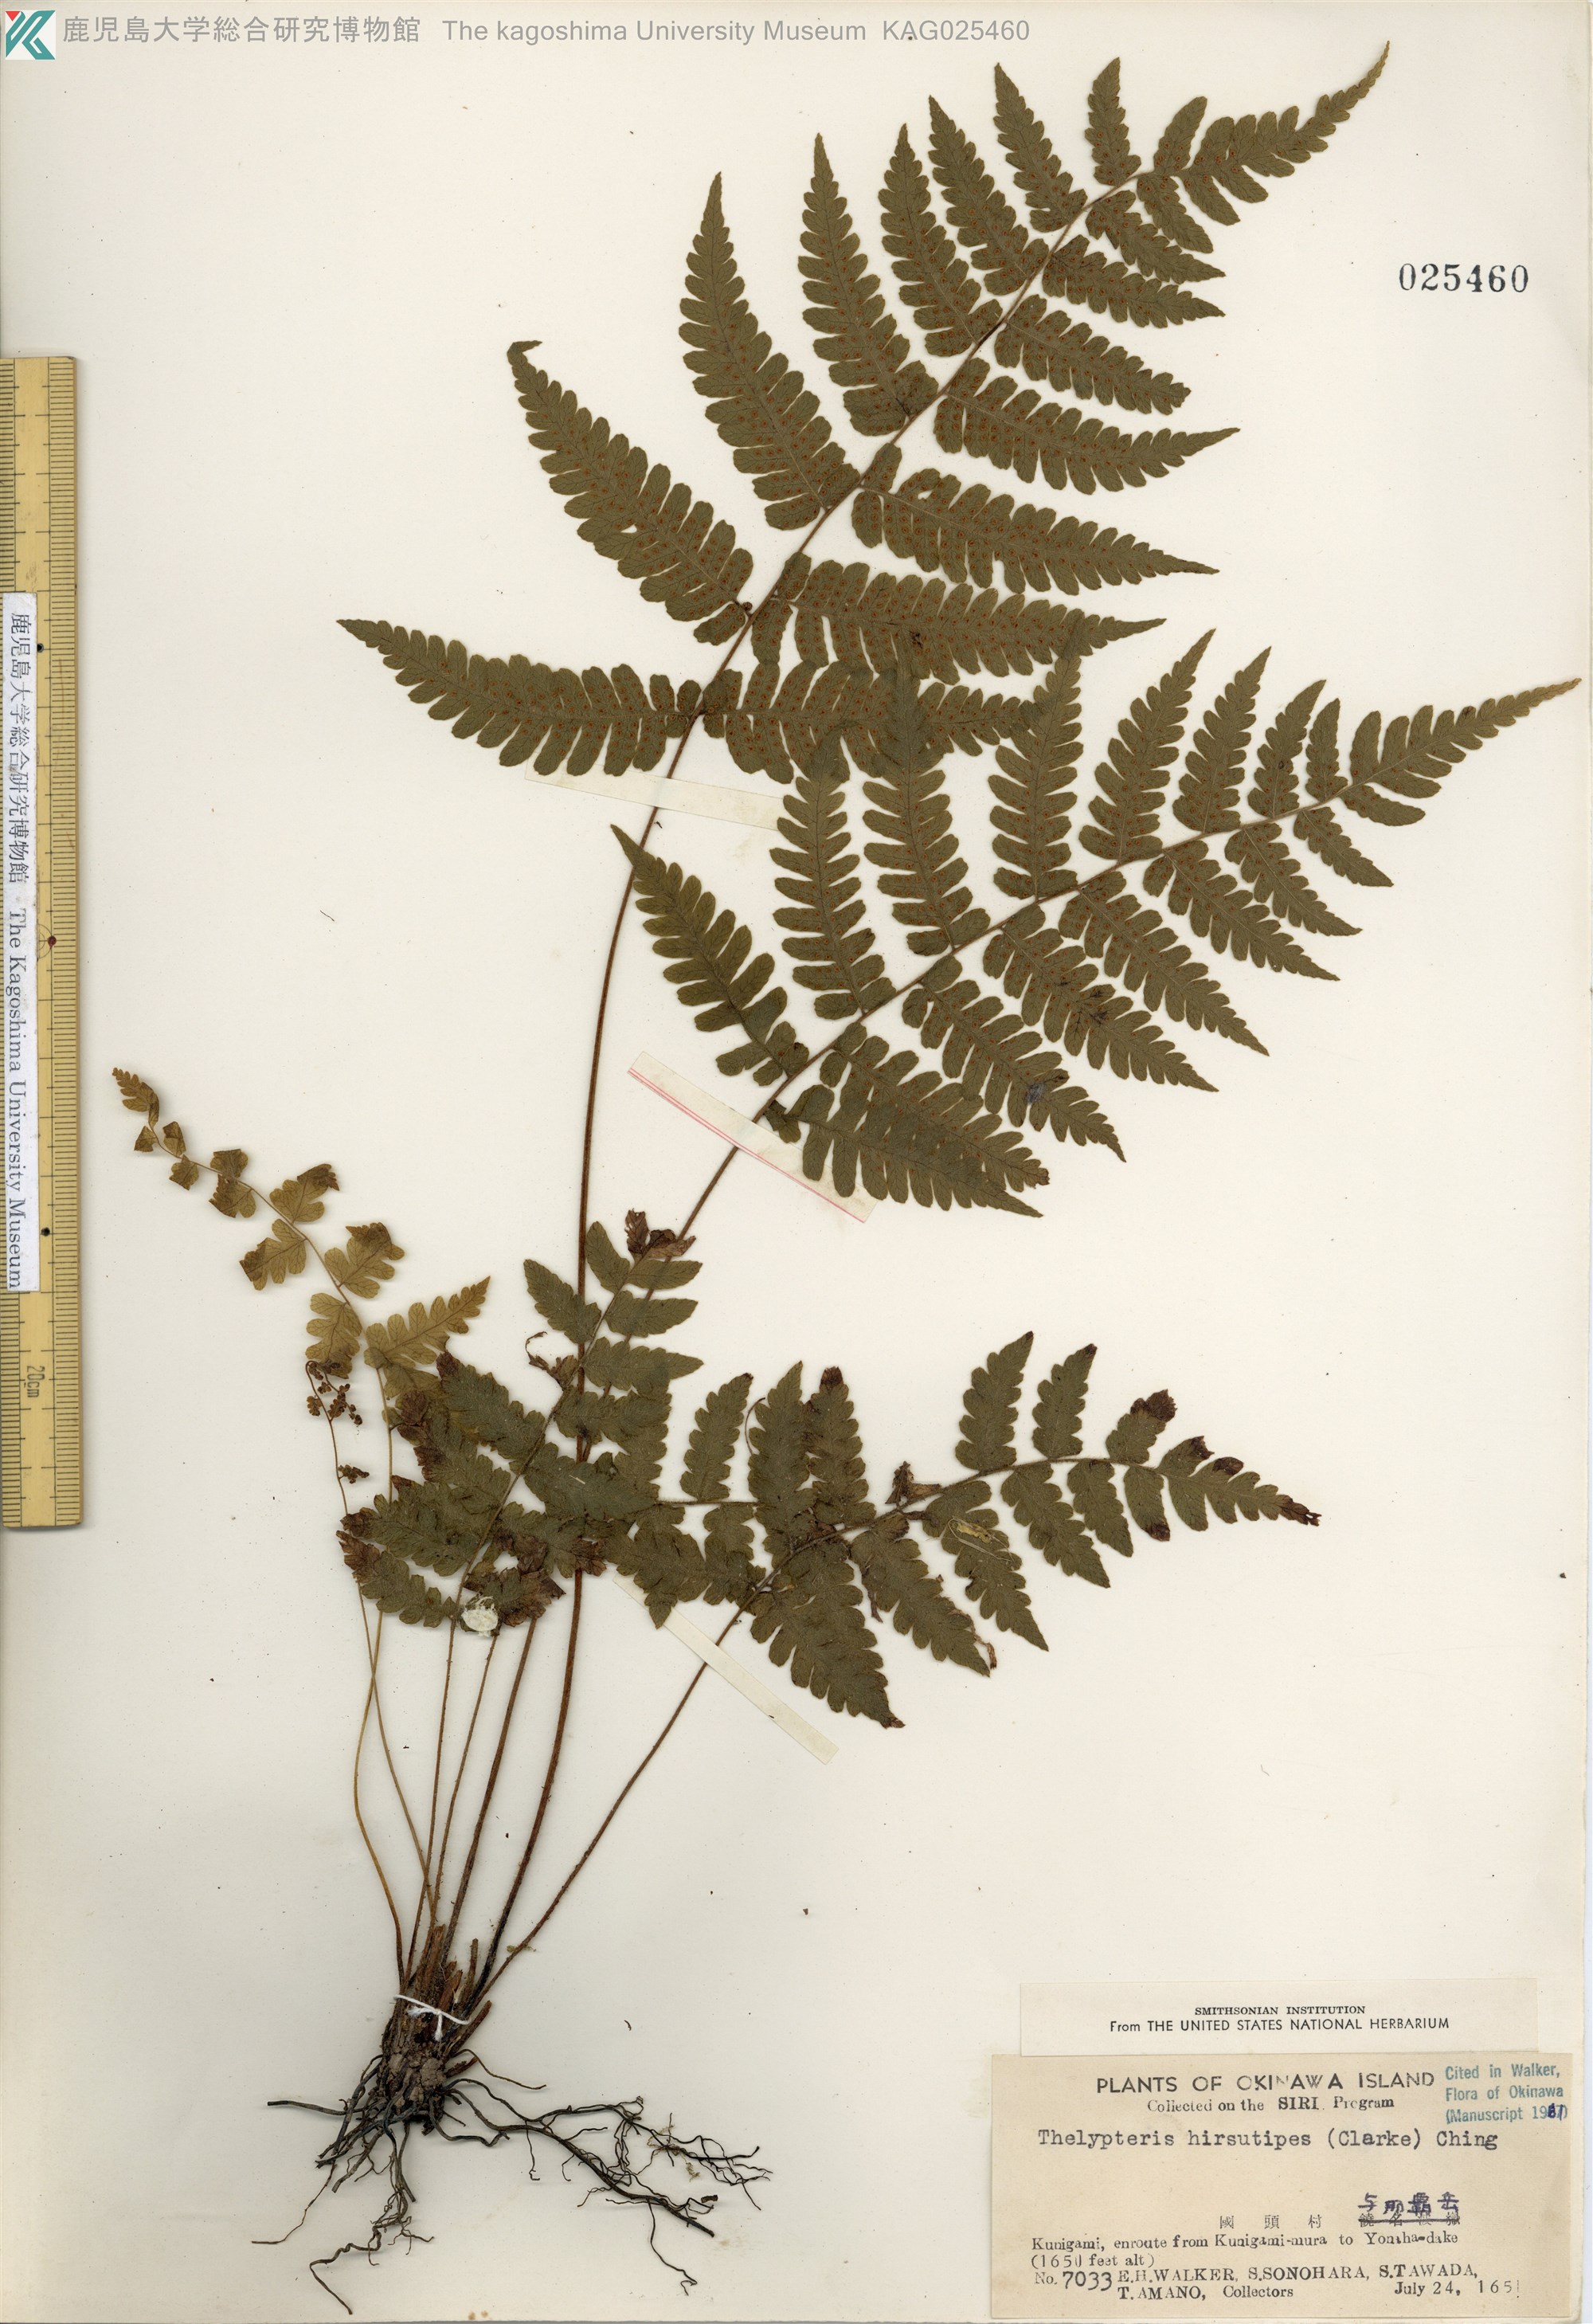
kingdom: Plantae
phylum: Tracheophyta
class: Polypodiopsida
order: Polypodiales
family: Thelypteridaceae
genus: Coryphopteris
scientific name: Coryphopteris hirsutipes
